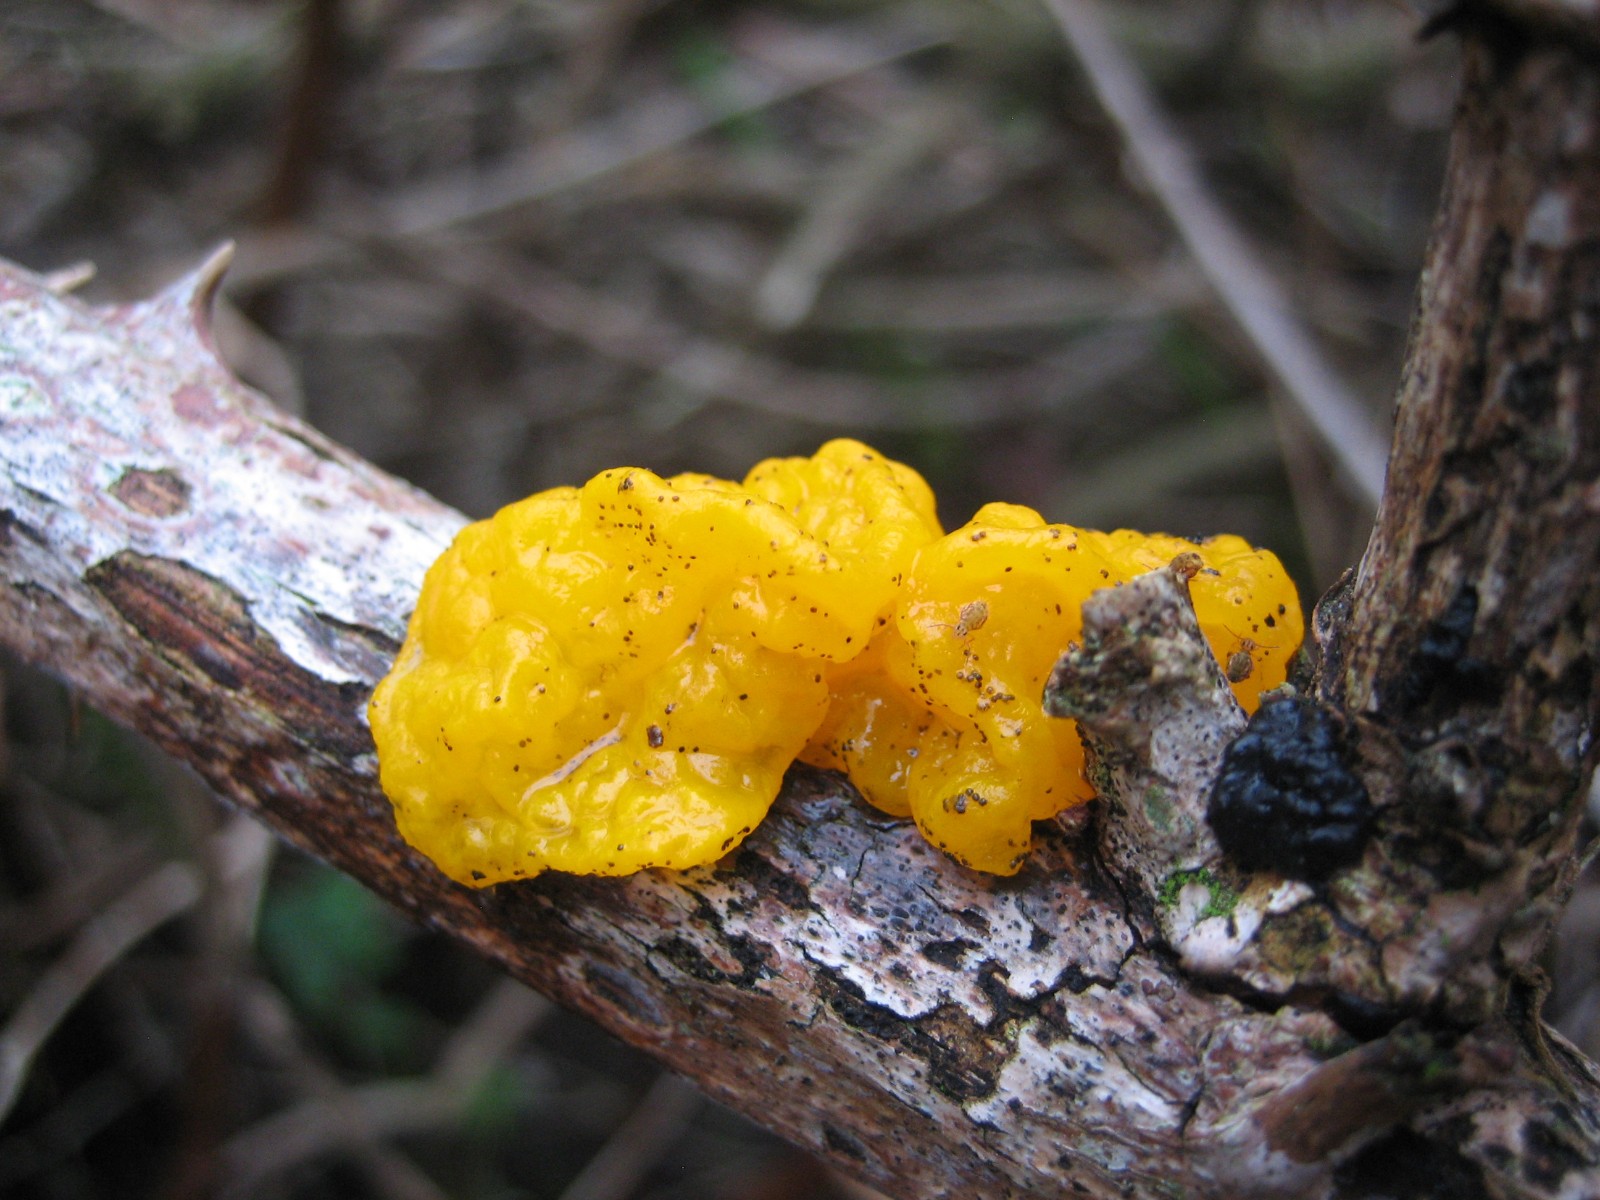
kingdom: Fungi
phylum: Basidiomycota
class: Tremellomycetes
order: Tremellales
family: Tremellaceae
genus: Tremella
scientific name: Tremella mesenterica
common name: gul bævresvamp
